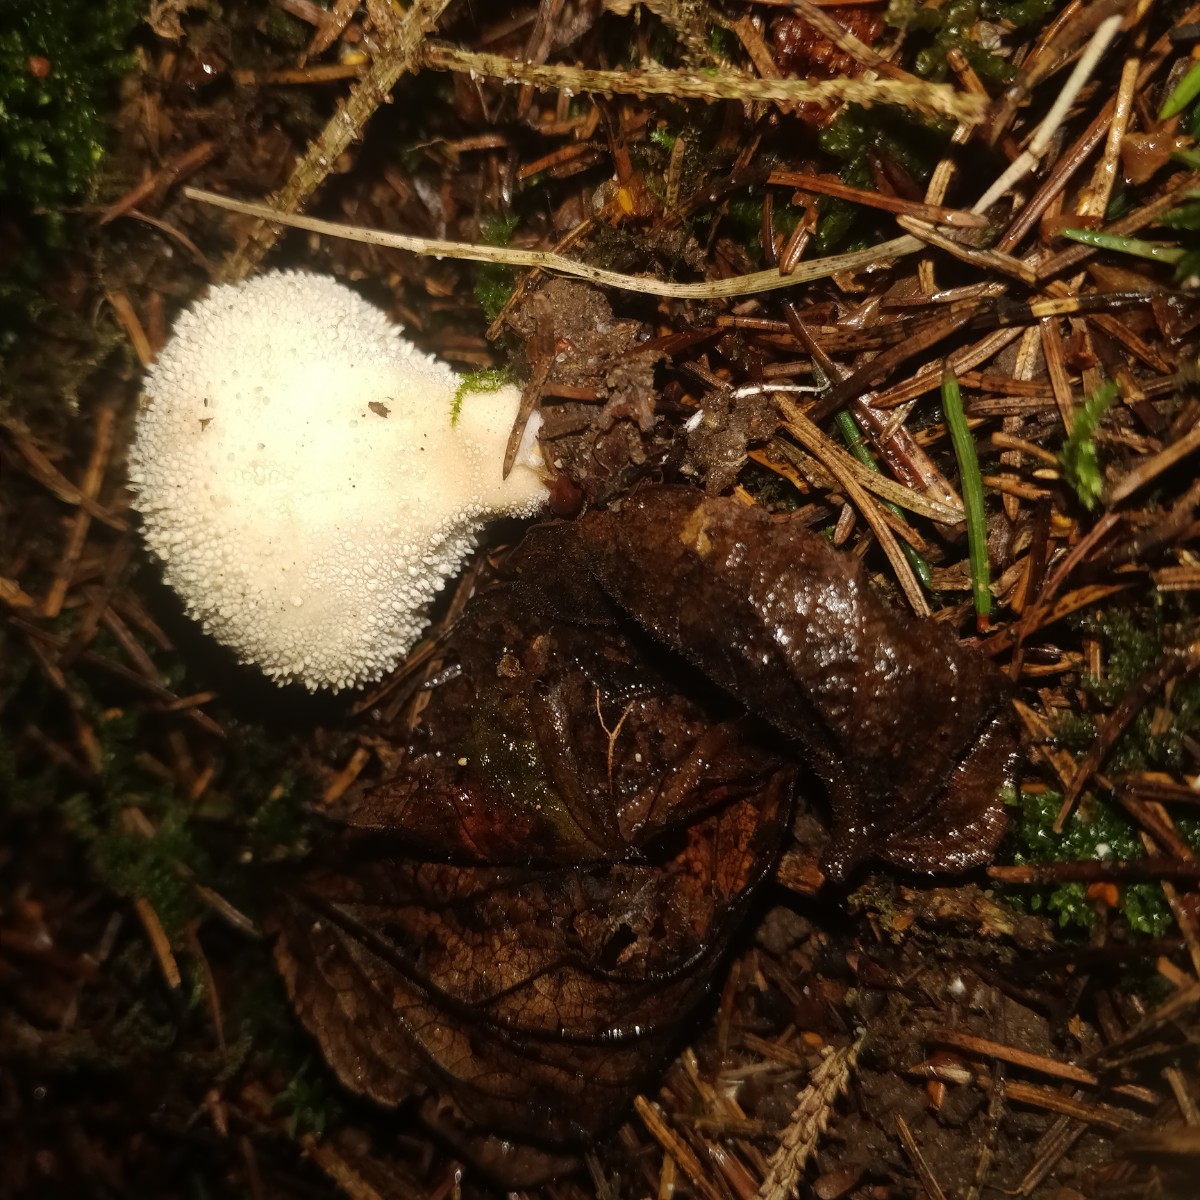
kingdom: Fungi
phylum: Basidiomycota
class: Agaricomycetes
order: Agaricales
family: Lycoperdaceae
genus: Lycoperdon
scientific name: Lycoperdon perlatum
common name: krystal-støvbold
